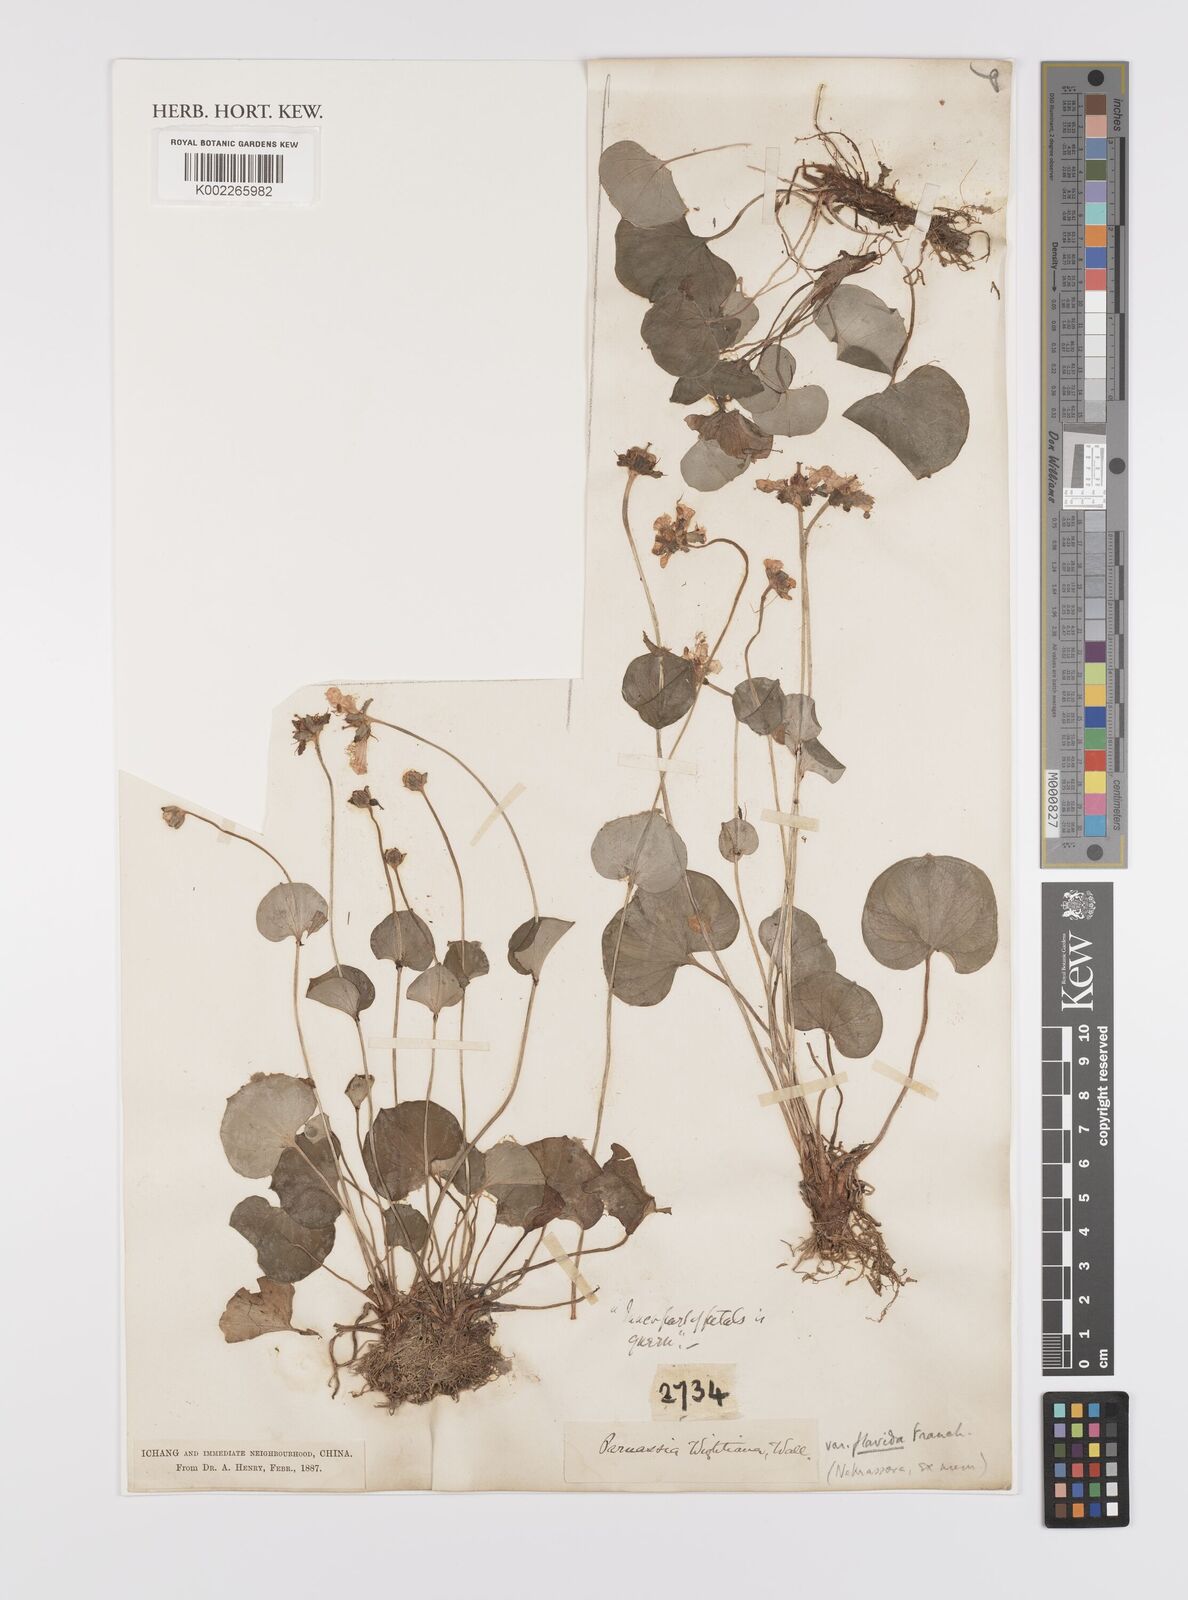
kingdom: Plantae
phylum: Tracheophyta
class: Magnoliopsida
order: Celastrales
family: Parnassiaceae
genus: Parnassia
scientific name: Parnassia wightiana
